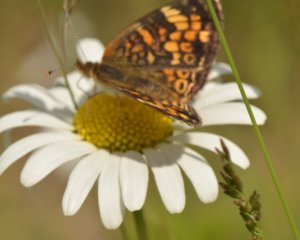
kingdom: Animalia
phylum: Arthropoda
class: Insecta
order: Lepidoptera
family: Nymphalidae
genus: Phyciodes
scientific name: Phyciodes tharos
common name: Northern Crescent
